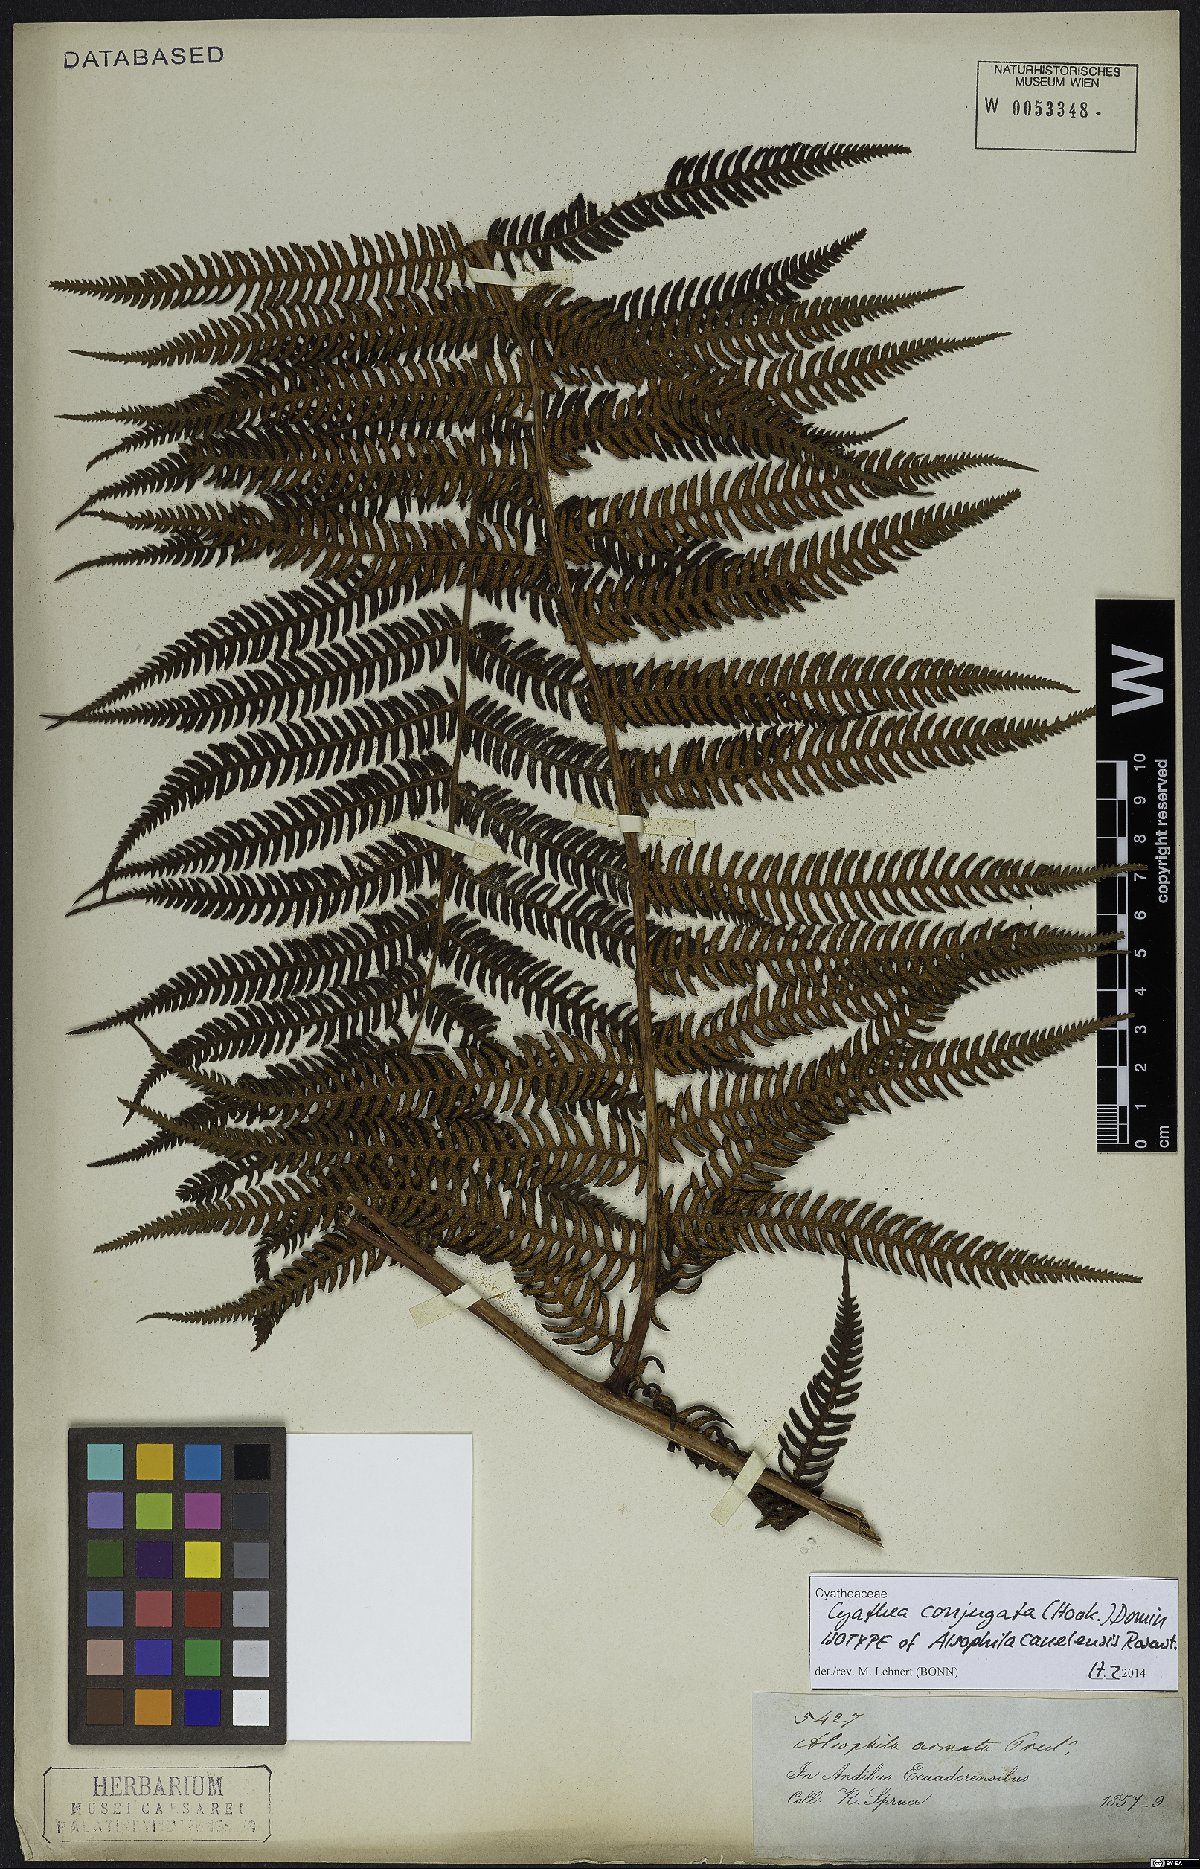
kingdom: Plantae
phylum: Tracheophyta
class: Polypodiopsida
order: Cyatheales
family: Cyatheaceae
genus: Cyathea
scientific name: Cyathea conjugata
